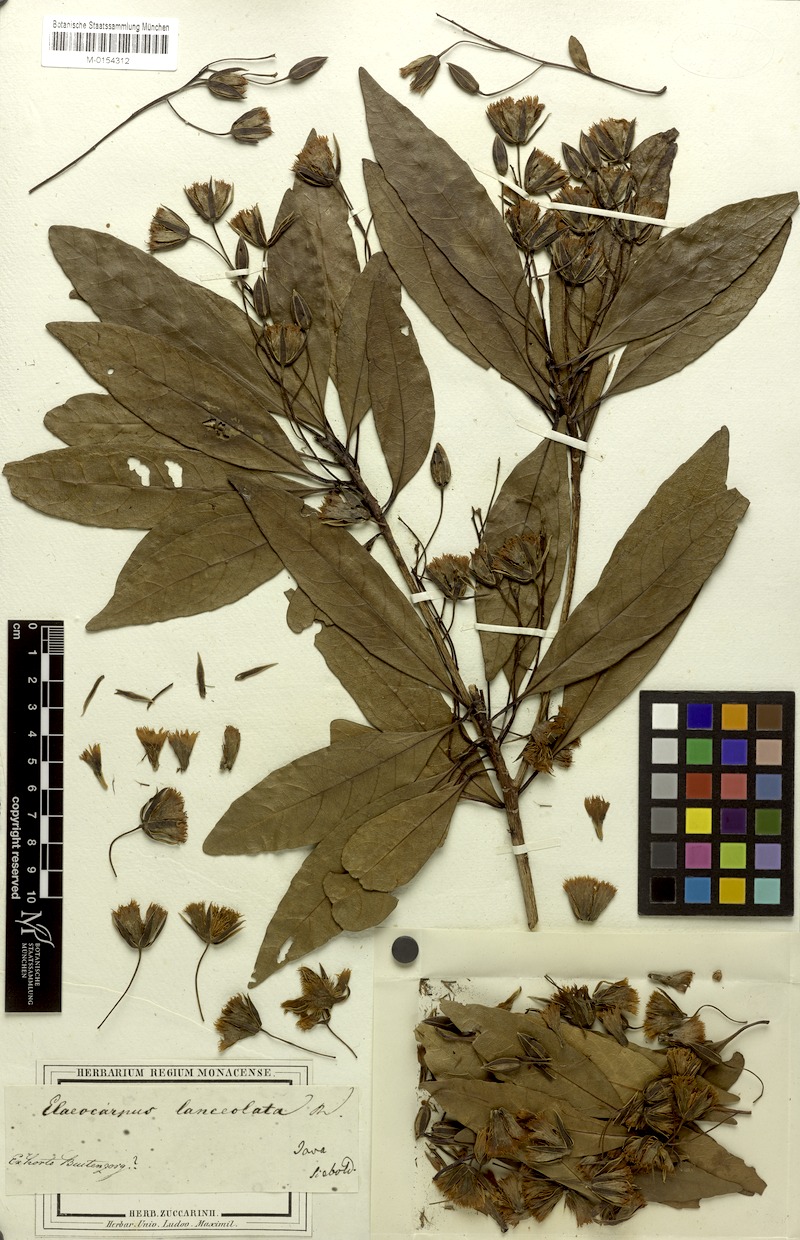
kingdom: Plantae
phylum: Tracheophyta
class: Magnoliopsida
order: Oxalidales
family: Elaeocarpaceae
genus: Elaeocarpus
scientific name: Elaeocarpus grandiflorus
